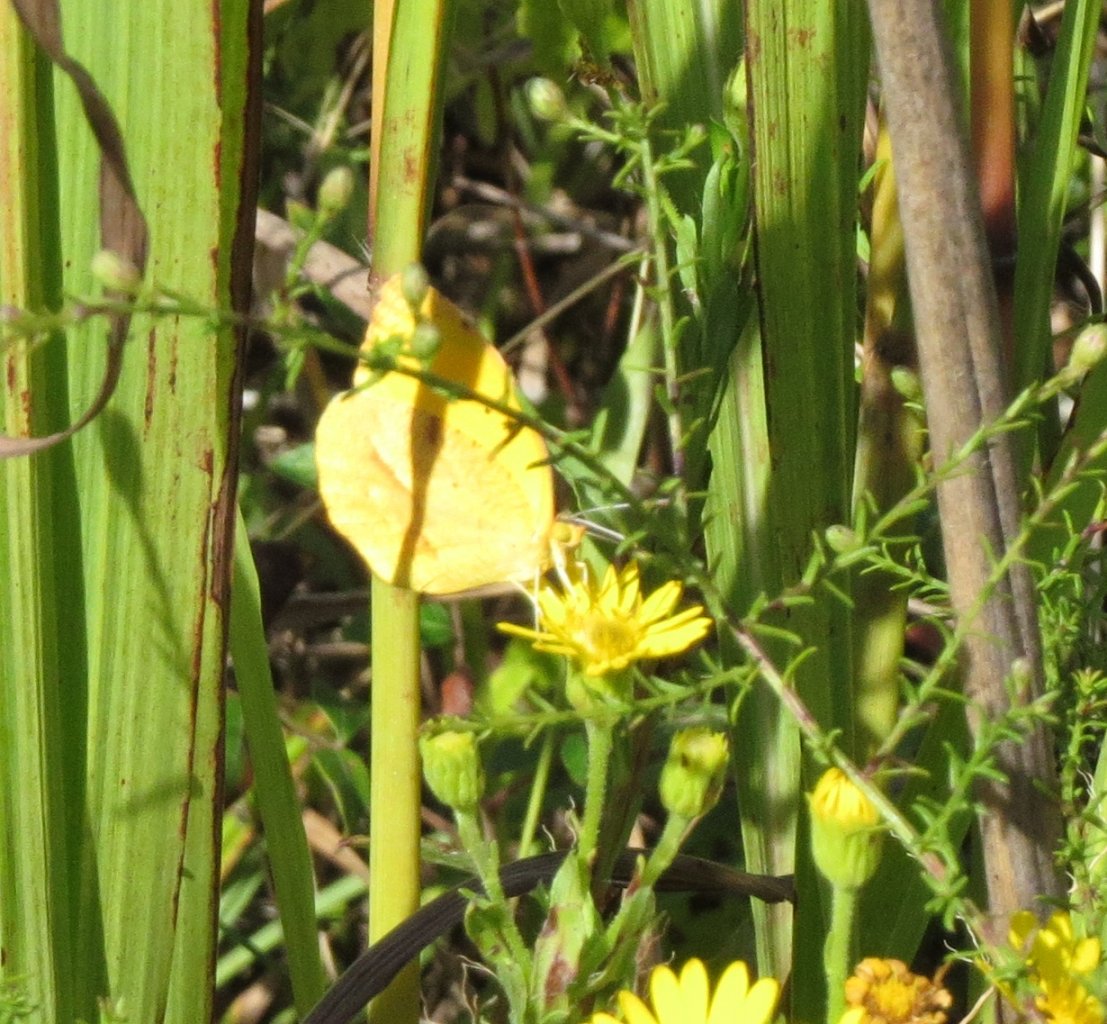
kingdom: Animalia
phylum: Arthropoda
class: Insecta
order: Lepidoptera
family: Pieridae
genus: Abaeis
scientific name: Abaeis nicippe
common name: Sleepy Orange
